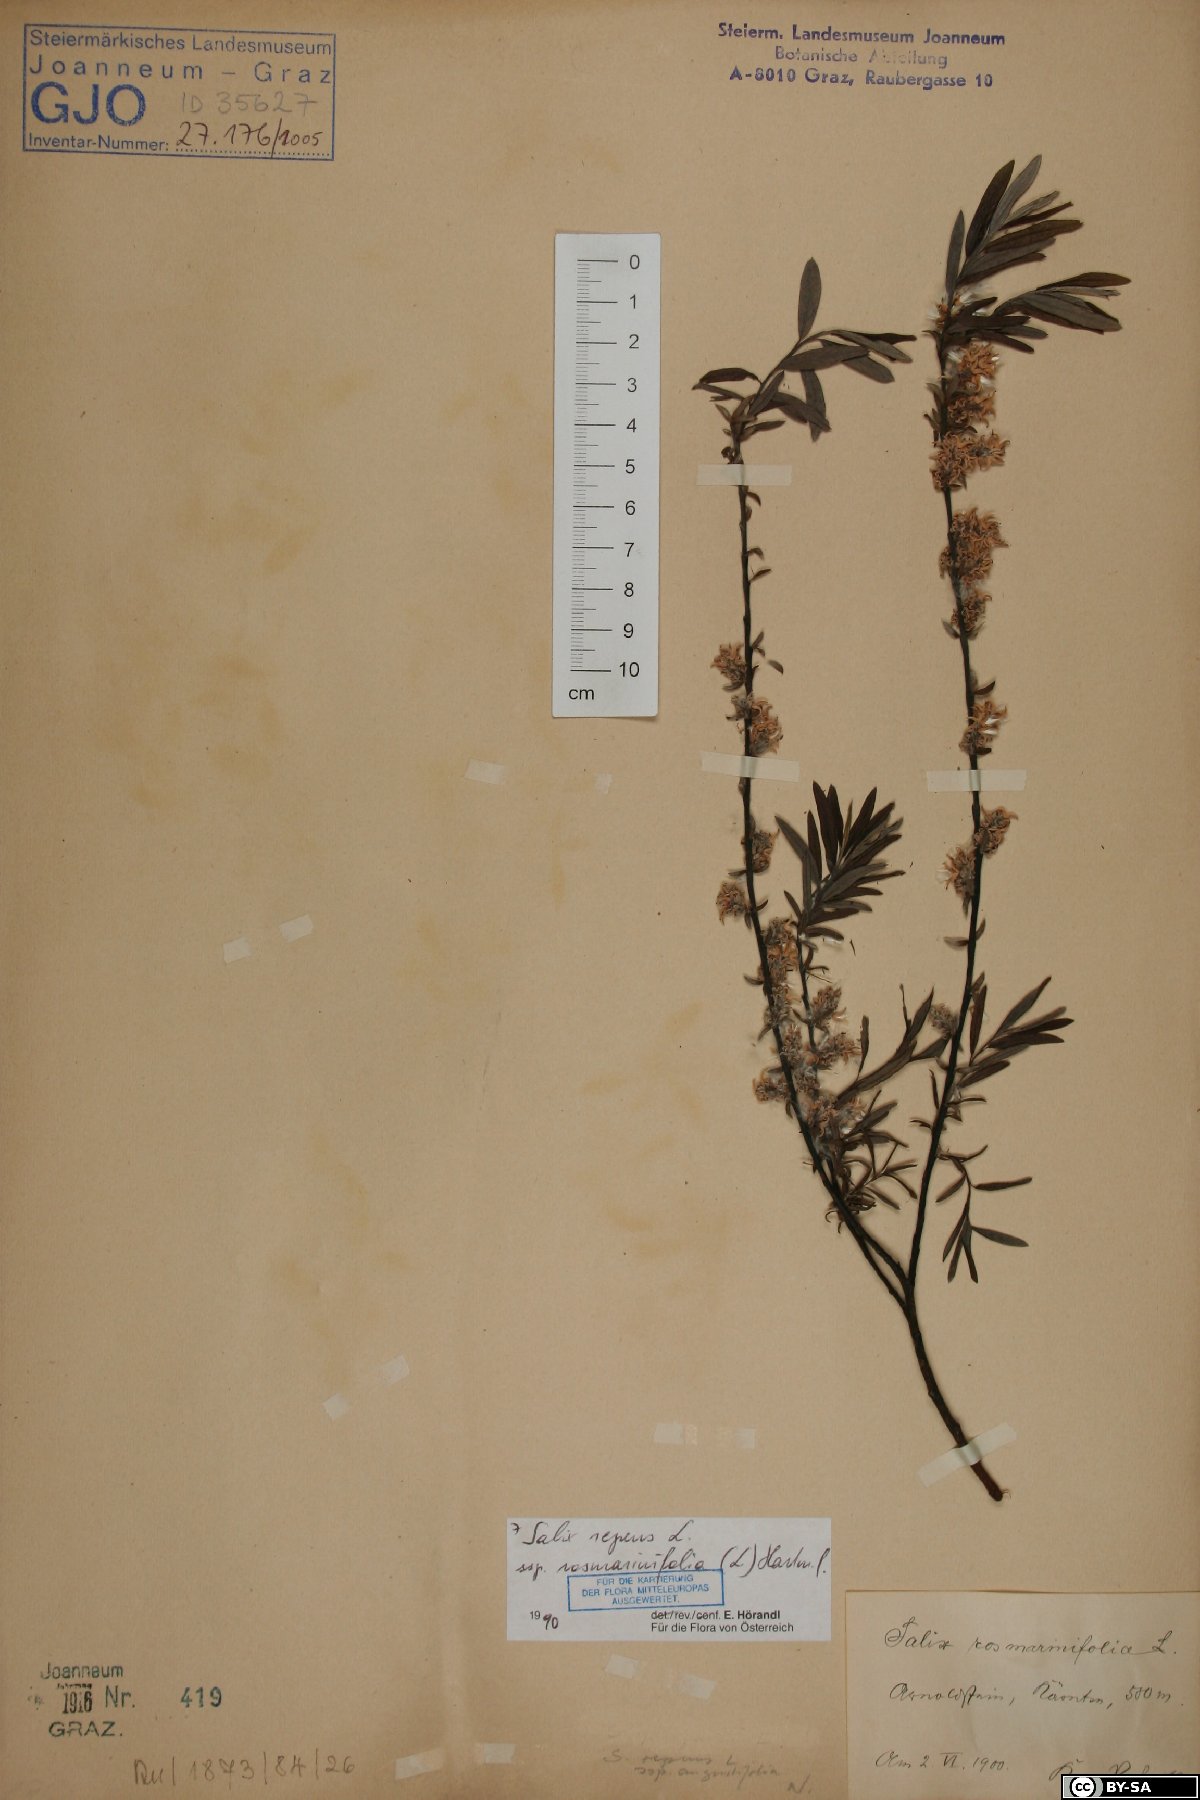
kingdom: Plantae
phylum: Tracheophyta
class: Magnoliopsida
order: Malpighiales
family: Salicaceae
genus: Salix
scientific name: Salix repens
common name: Creeping willow
